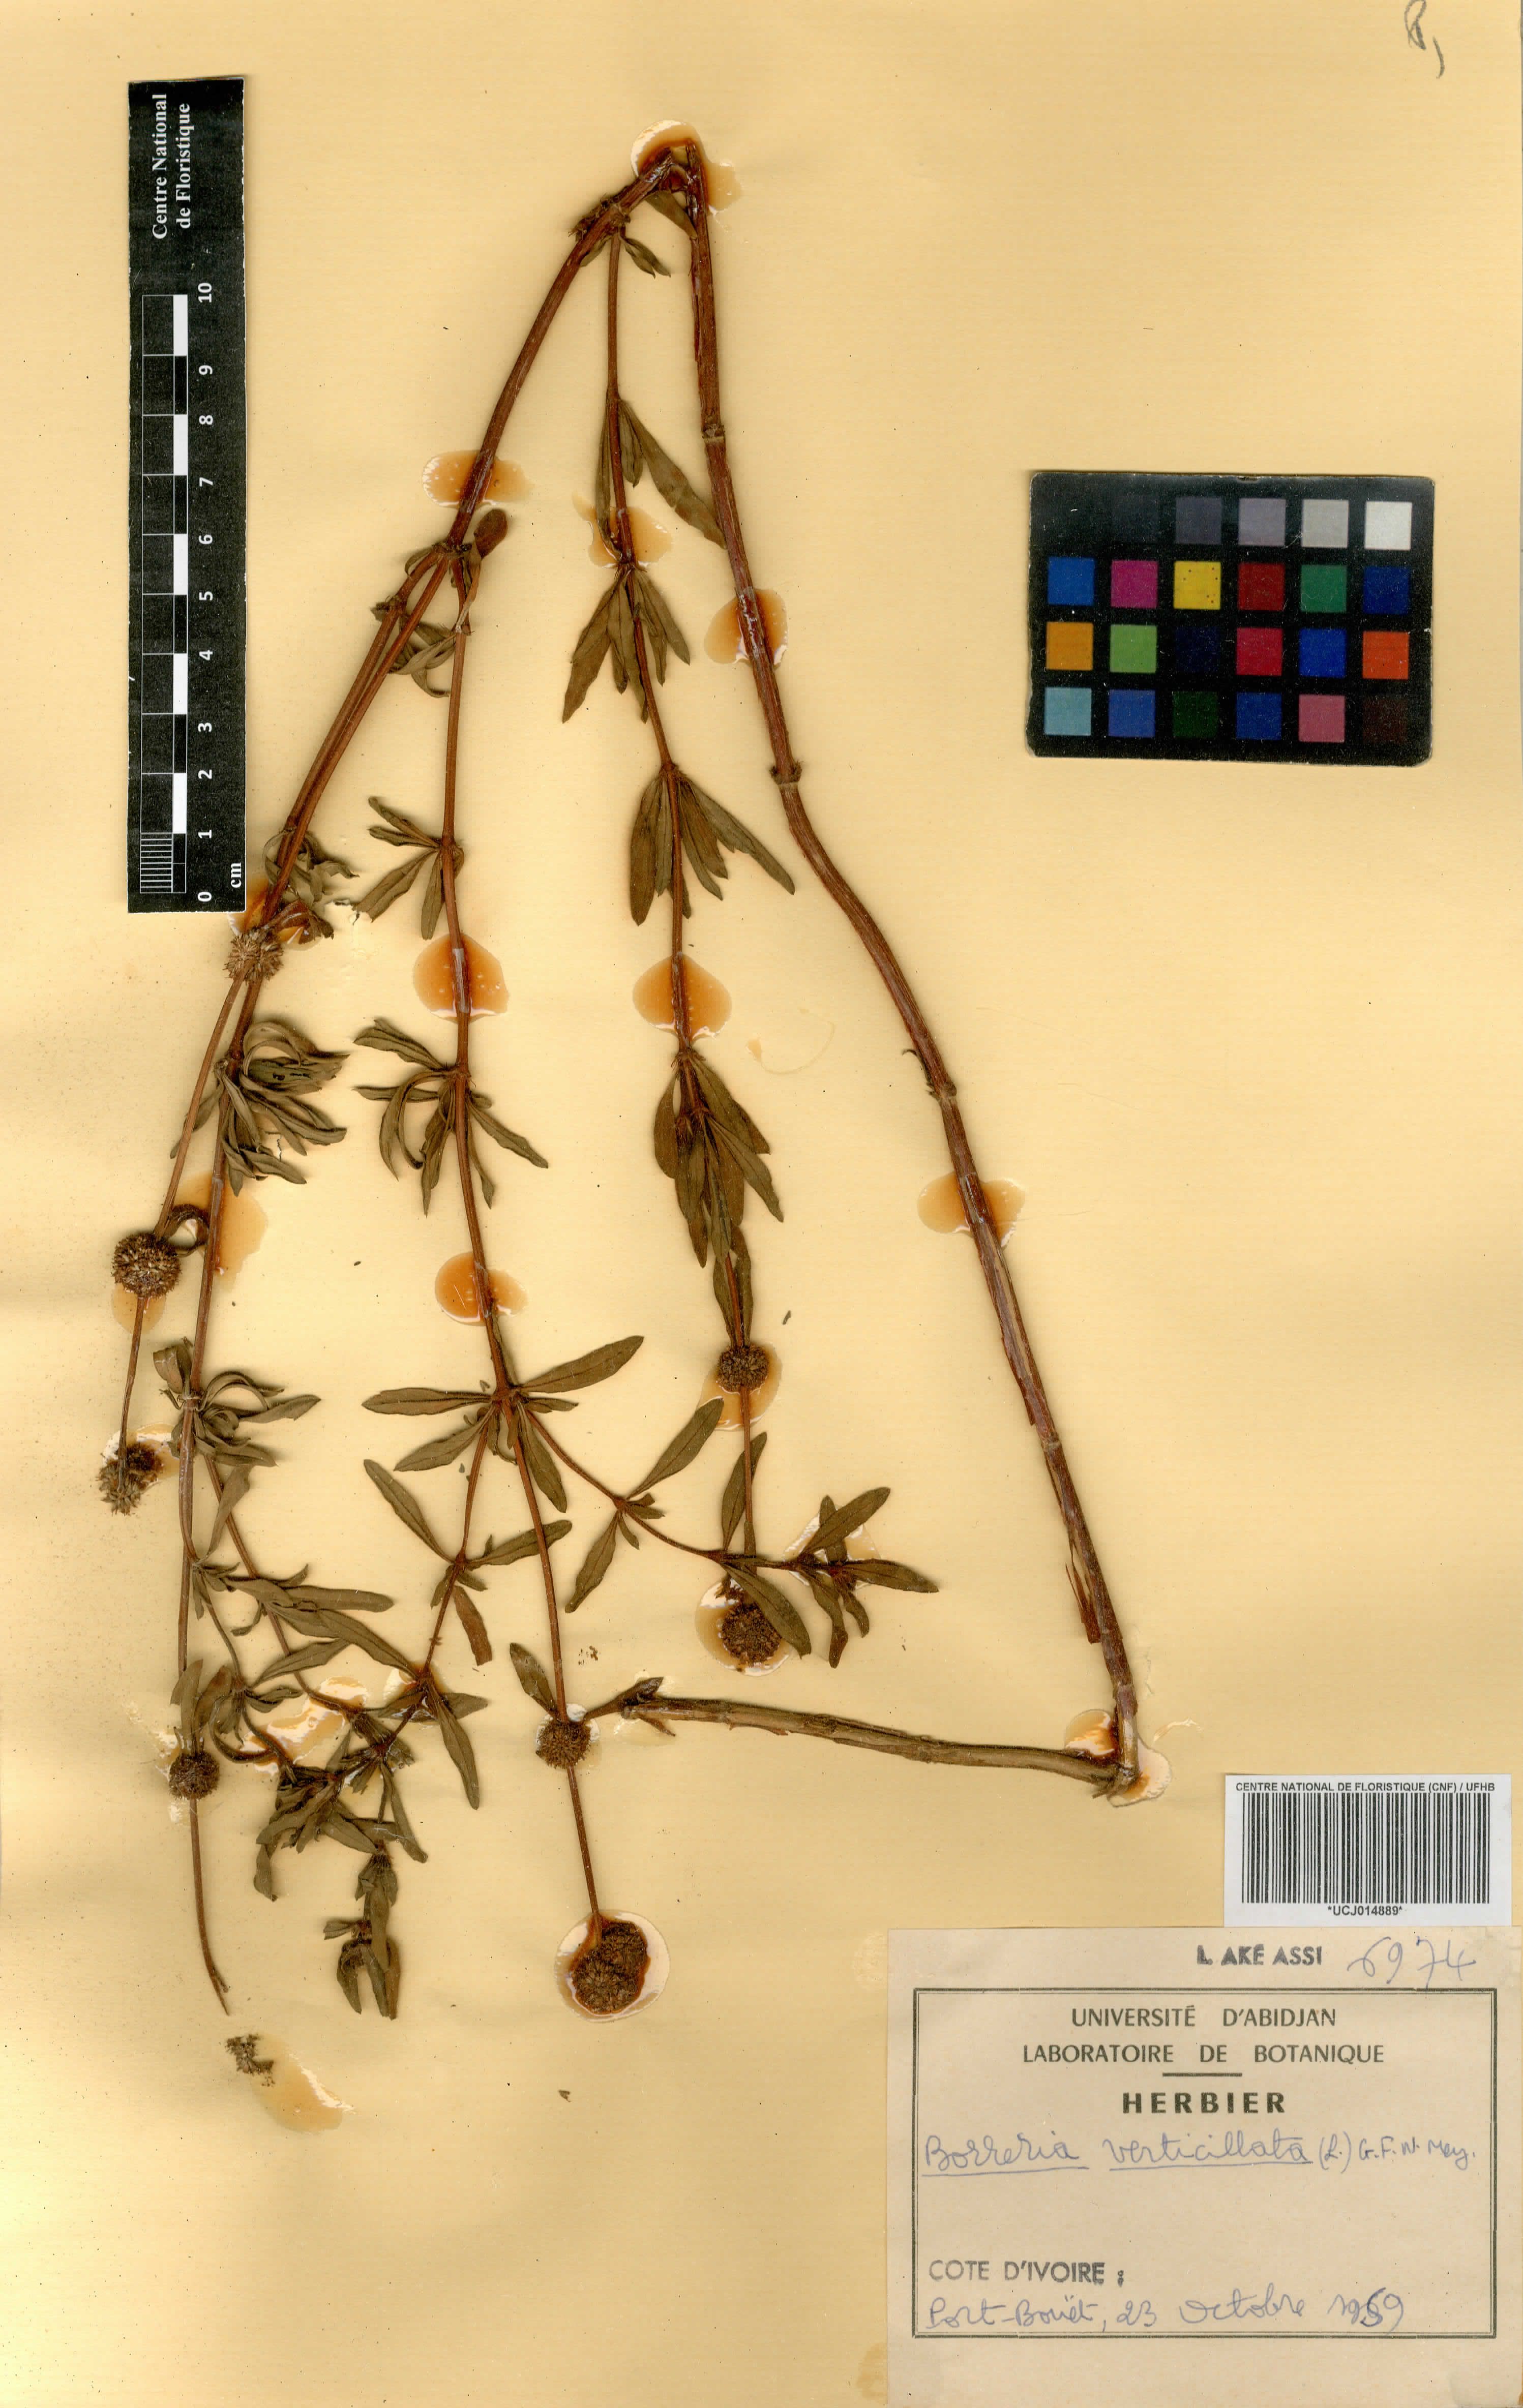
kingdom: Plantae
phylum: Tracheophyta
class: Magnoliopsida
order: Gentianales
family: Rubiaceae
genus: Spermacoce
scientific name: Spermacoce verticillata
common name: Shrubby false buttonweed
